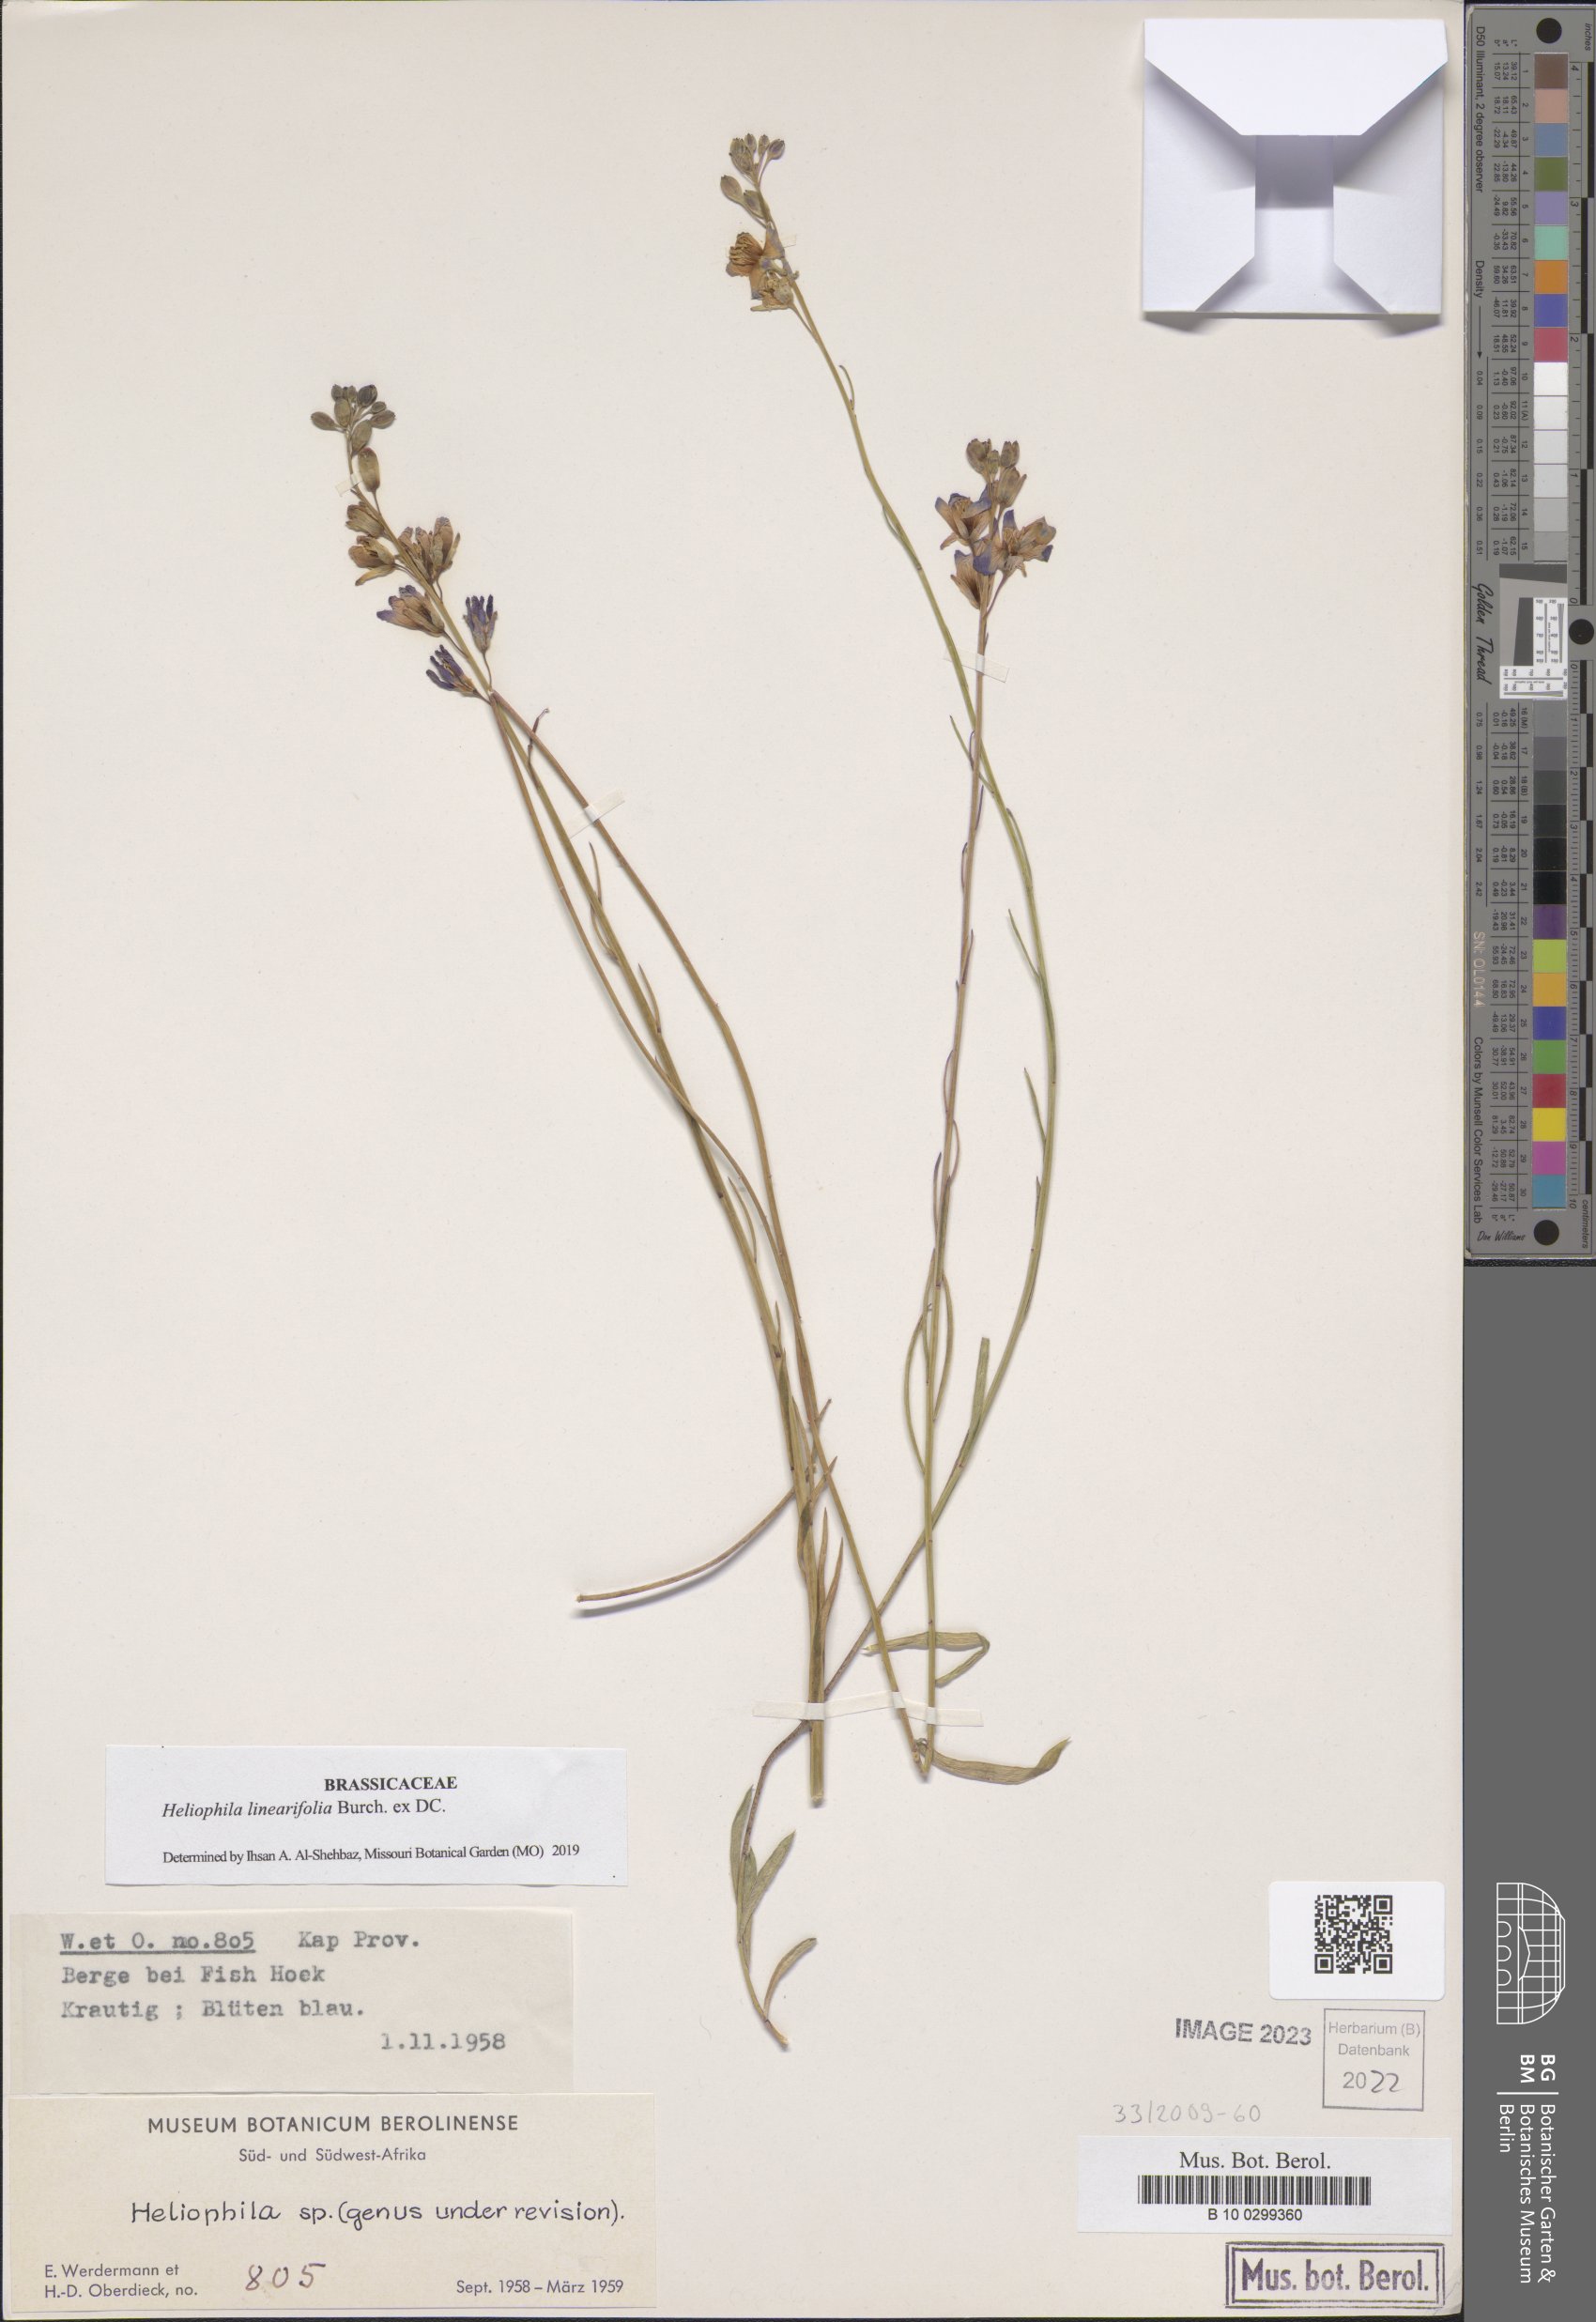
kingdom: Plantae
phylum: Tracheophyta
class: Magnoliopsida
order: Brassicales
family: Brassicaceae
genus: Heliophila
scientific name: Heliophila linearis
